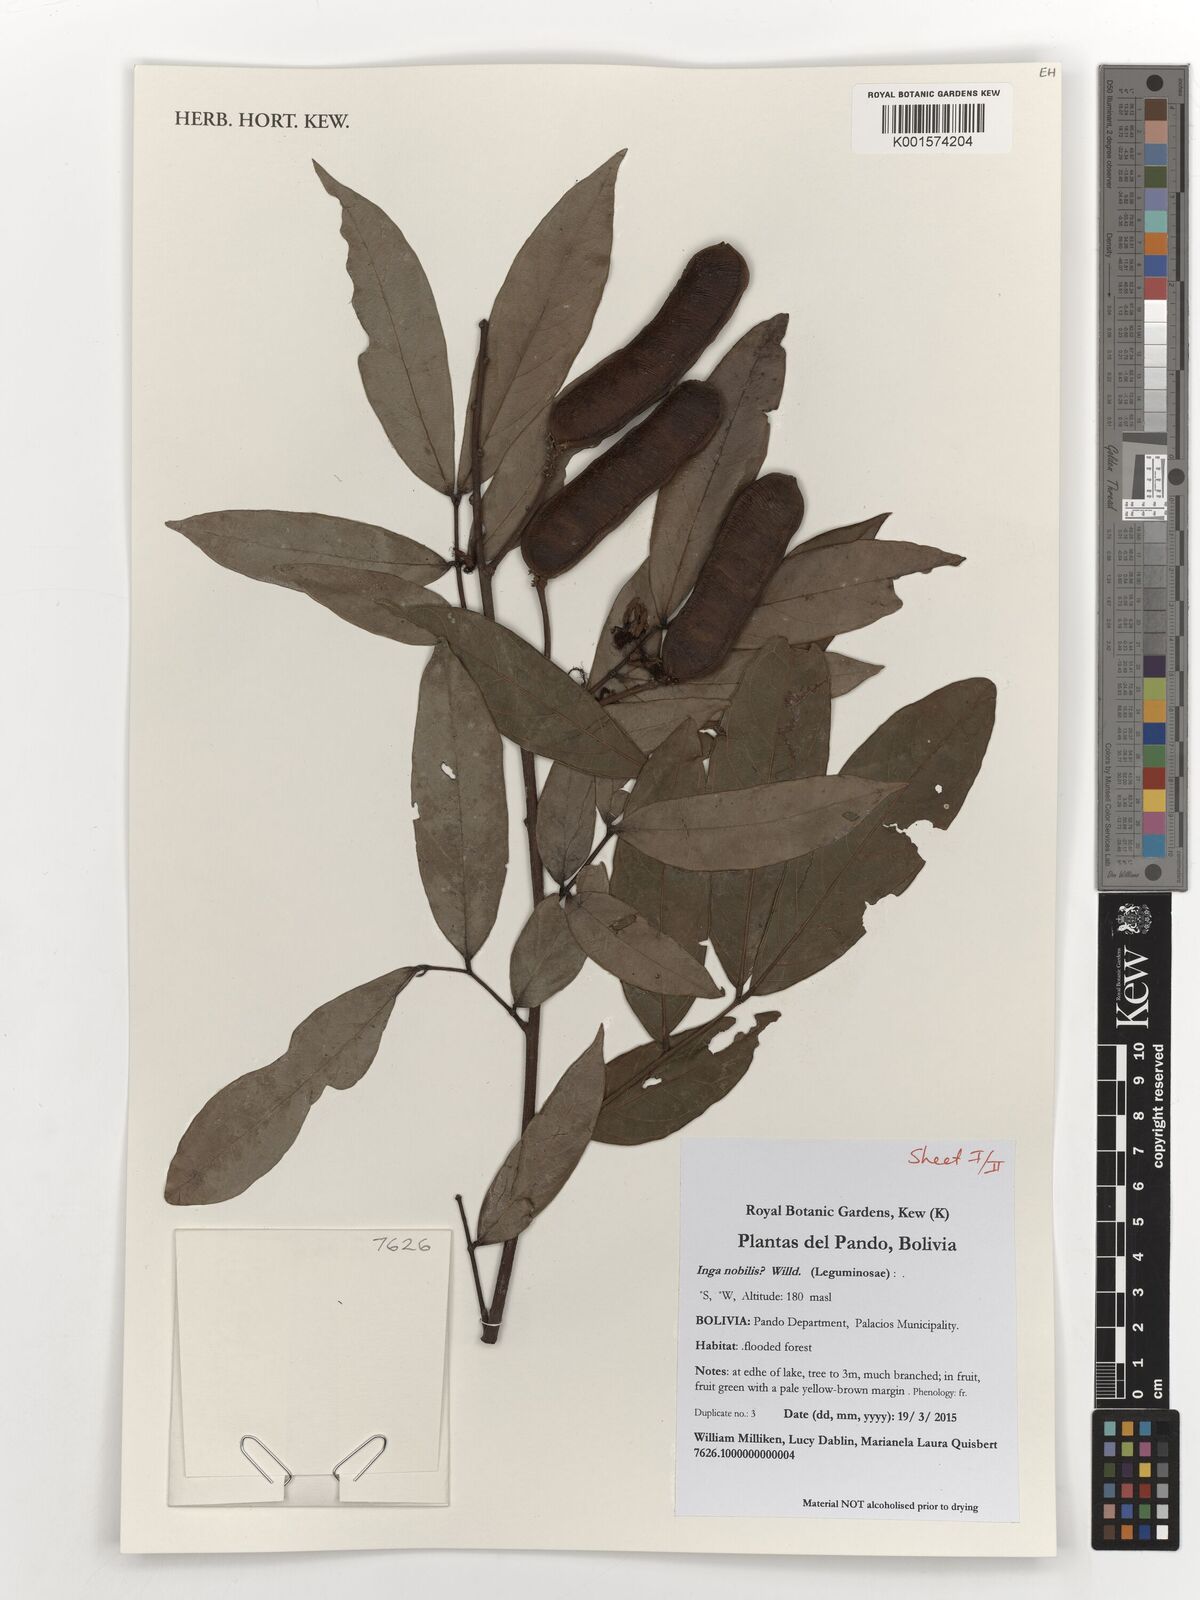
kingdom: Plantae
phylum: Tracheophyta
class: Magnoliopsida
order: Fabales
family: Fabaceae
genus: Inga
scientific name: Inga nobilis
